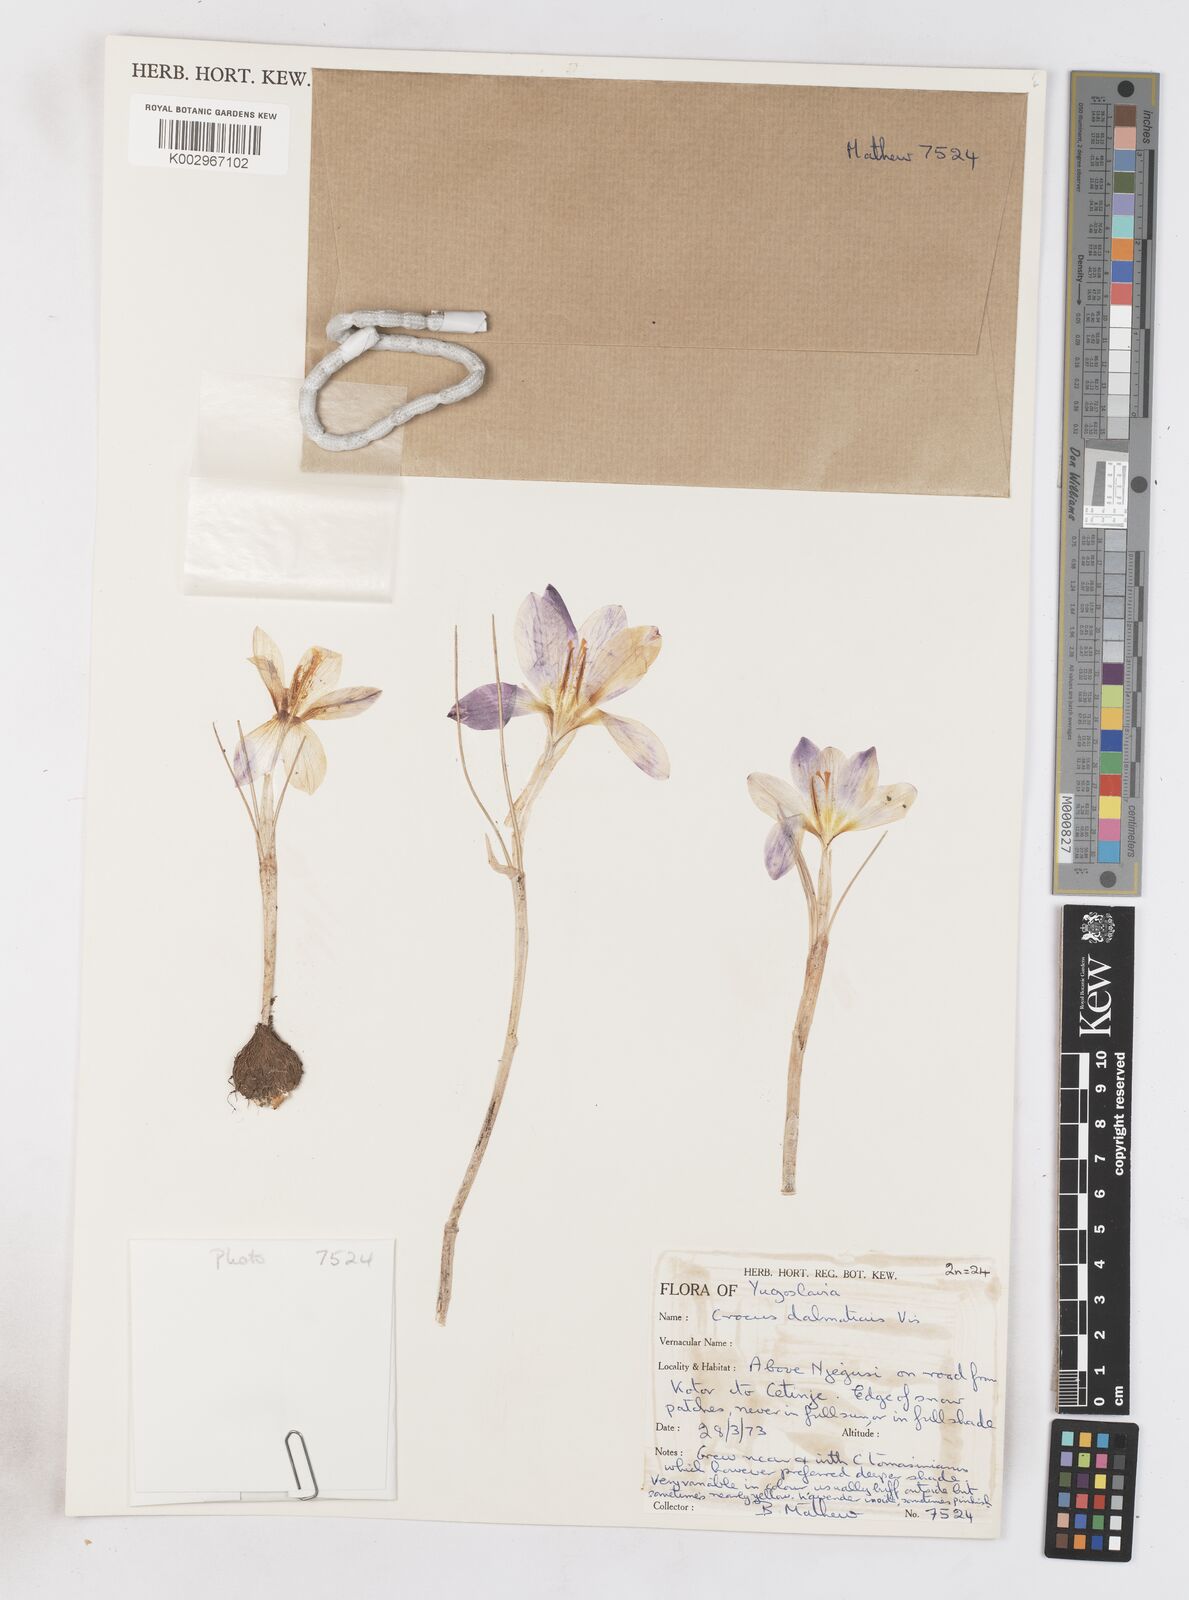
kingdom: Plantae
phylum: Tracheophyta
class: Liliopsida
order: Asparagales
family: Iridaceae
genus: Crocus
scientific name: Crocus dalmaticus
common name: Dalmatian saffron
